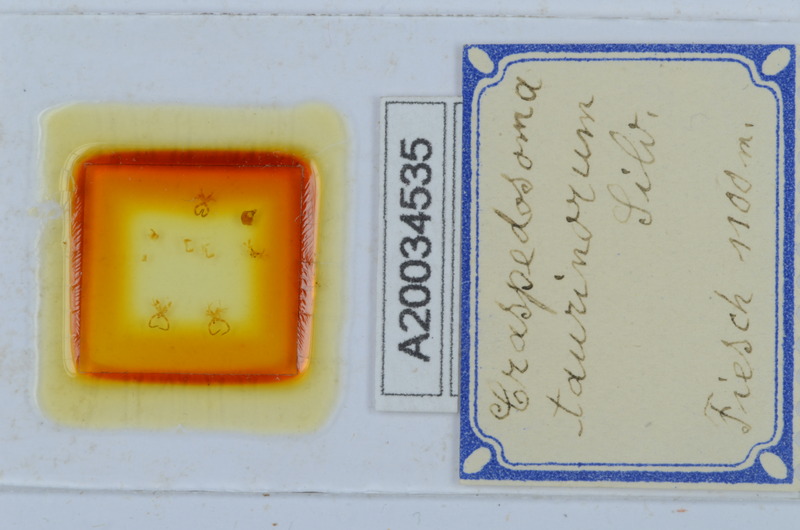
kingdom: Animalia
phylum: Arthropoda
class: Diplopoda
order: Chordeumatida
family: Craspedosomatidae
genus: Craspedosoma
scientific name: Craspedosoma taurinorum
